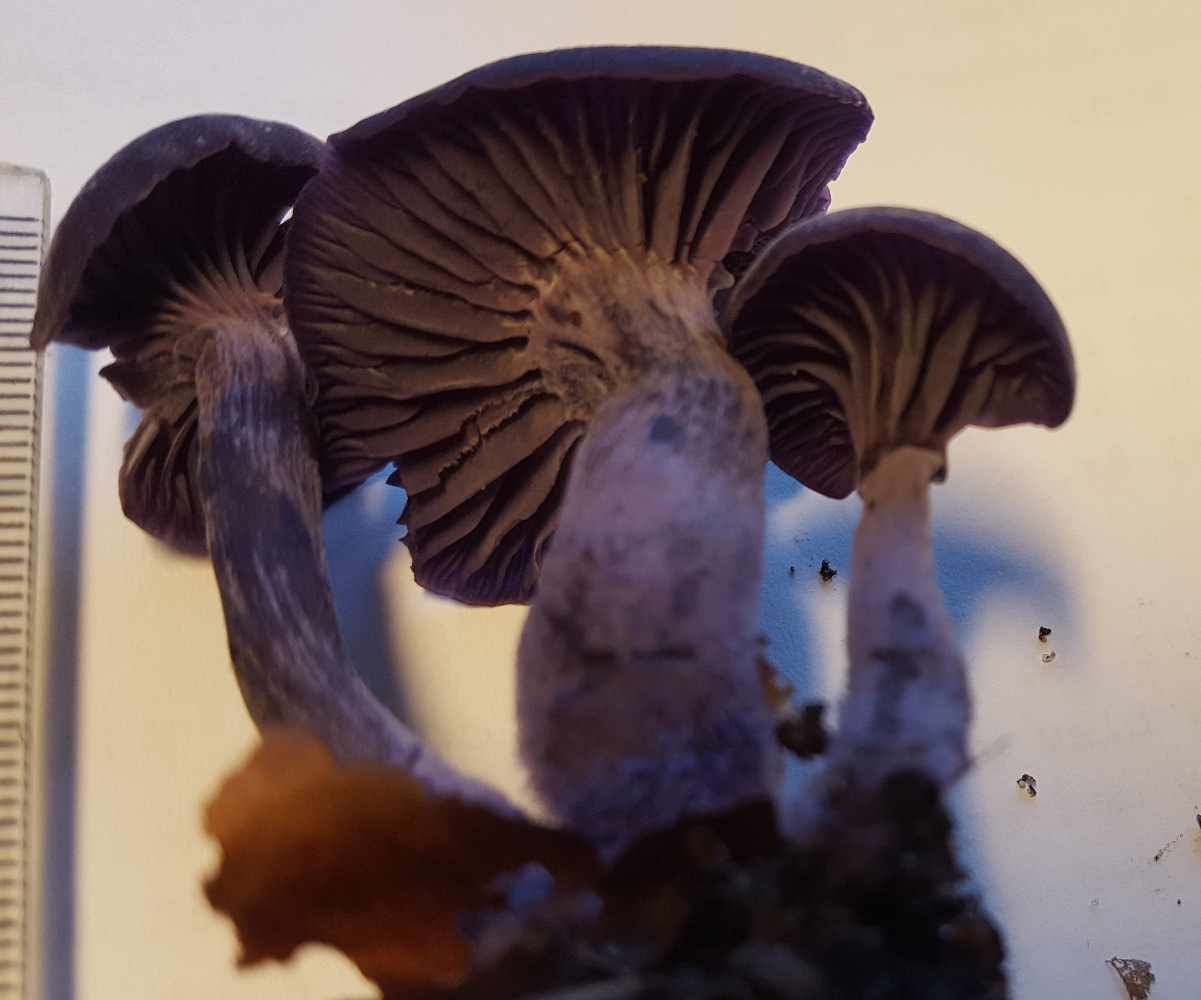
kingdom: Fungi
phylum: Basidiomycota
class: Agaricomycetes
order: Agaricales
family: Hydnangiaceae
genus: Laccaria
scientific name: Laccaria amethystina
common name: violet ametysthat
